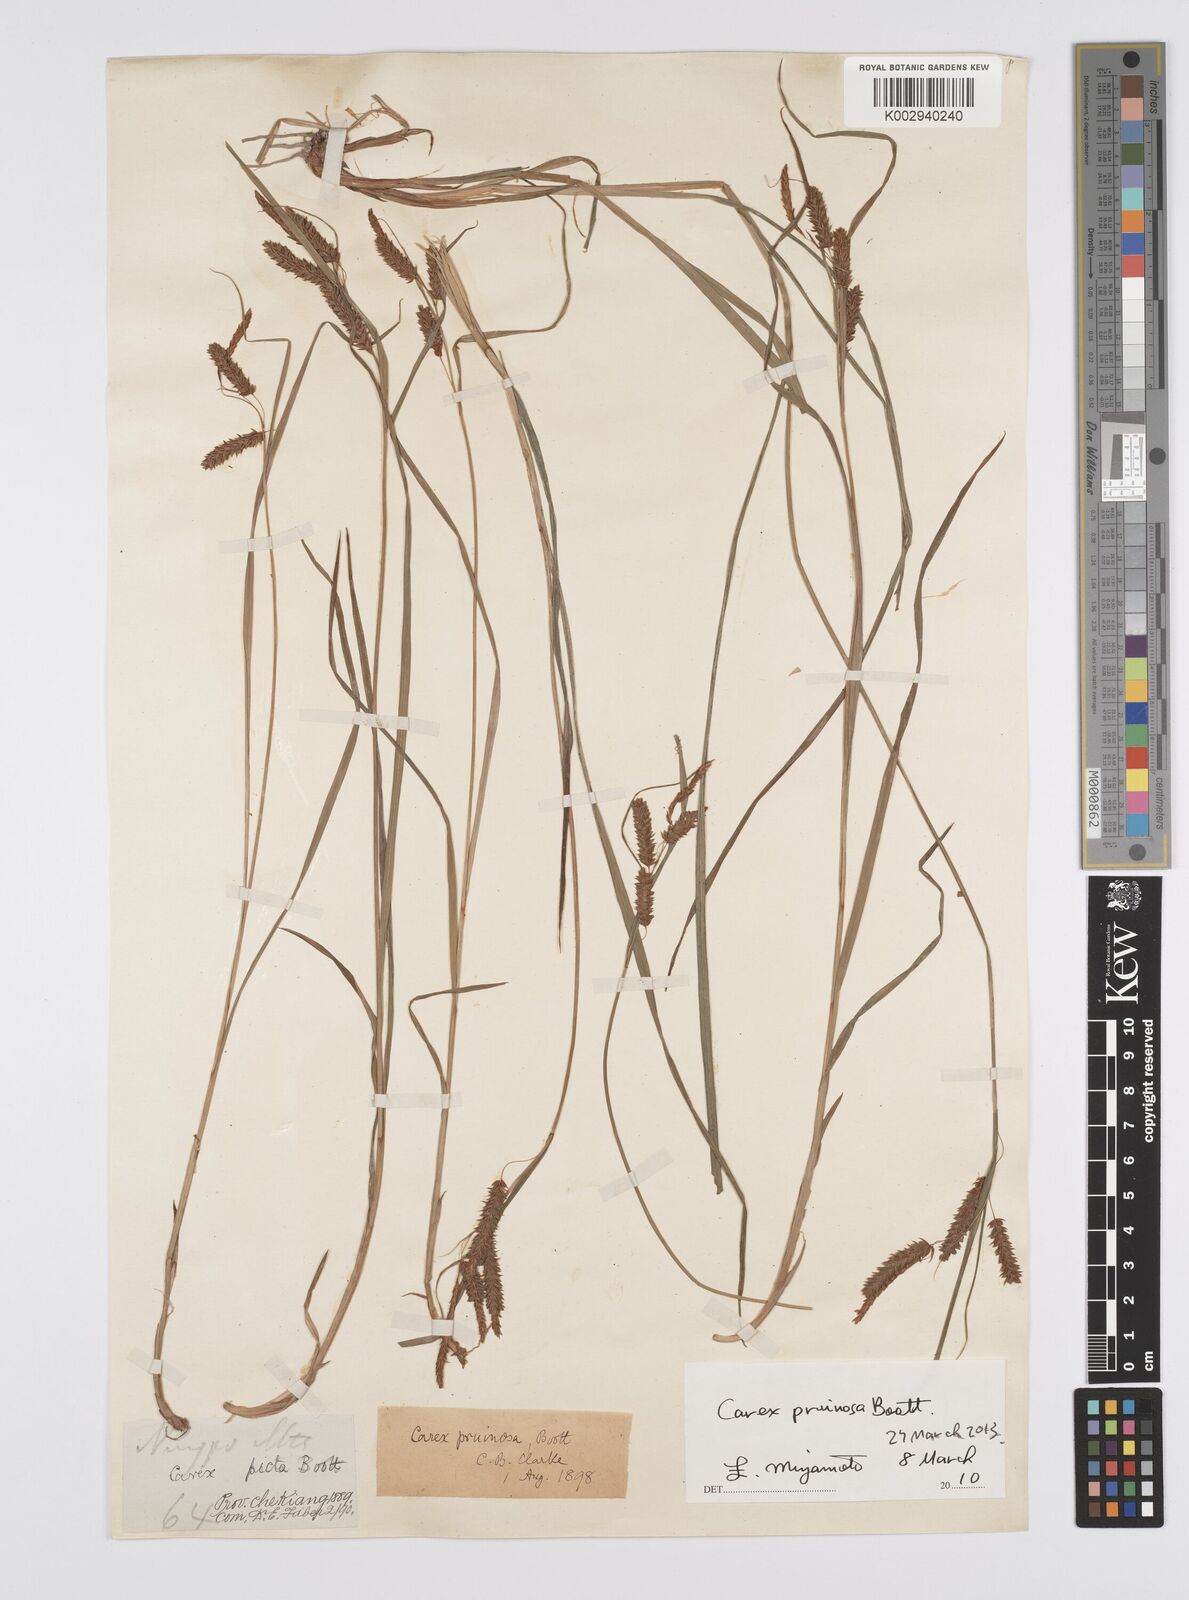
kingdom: Plantae
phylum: Tracheophyta
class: Liliopsida
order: Poales
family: Cyperaceae
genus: Carex
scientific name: Carex pruinosa
